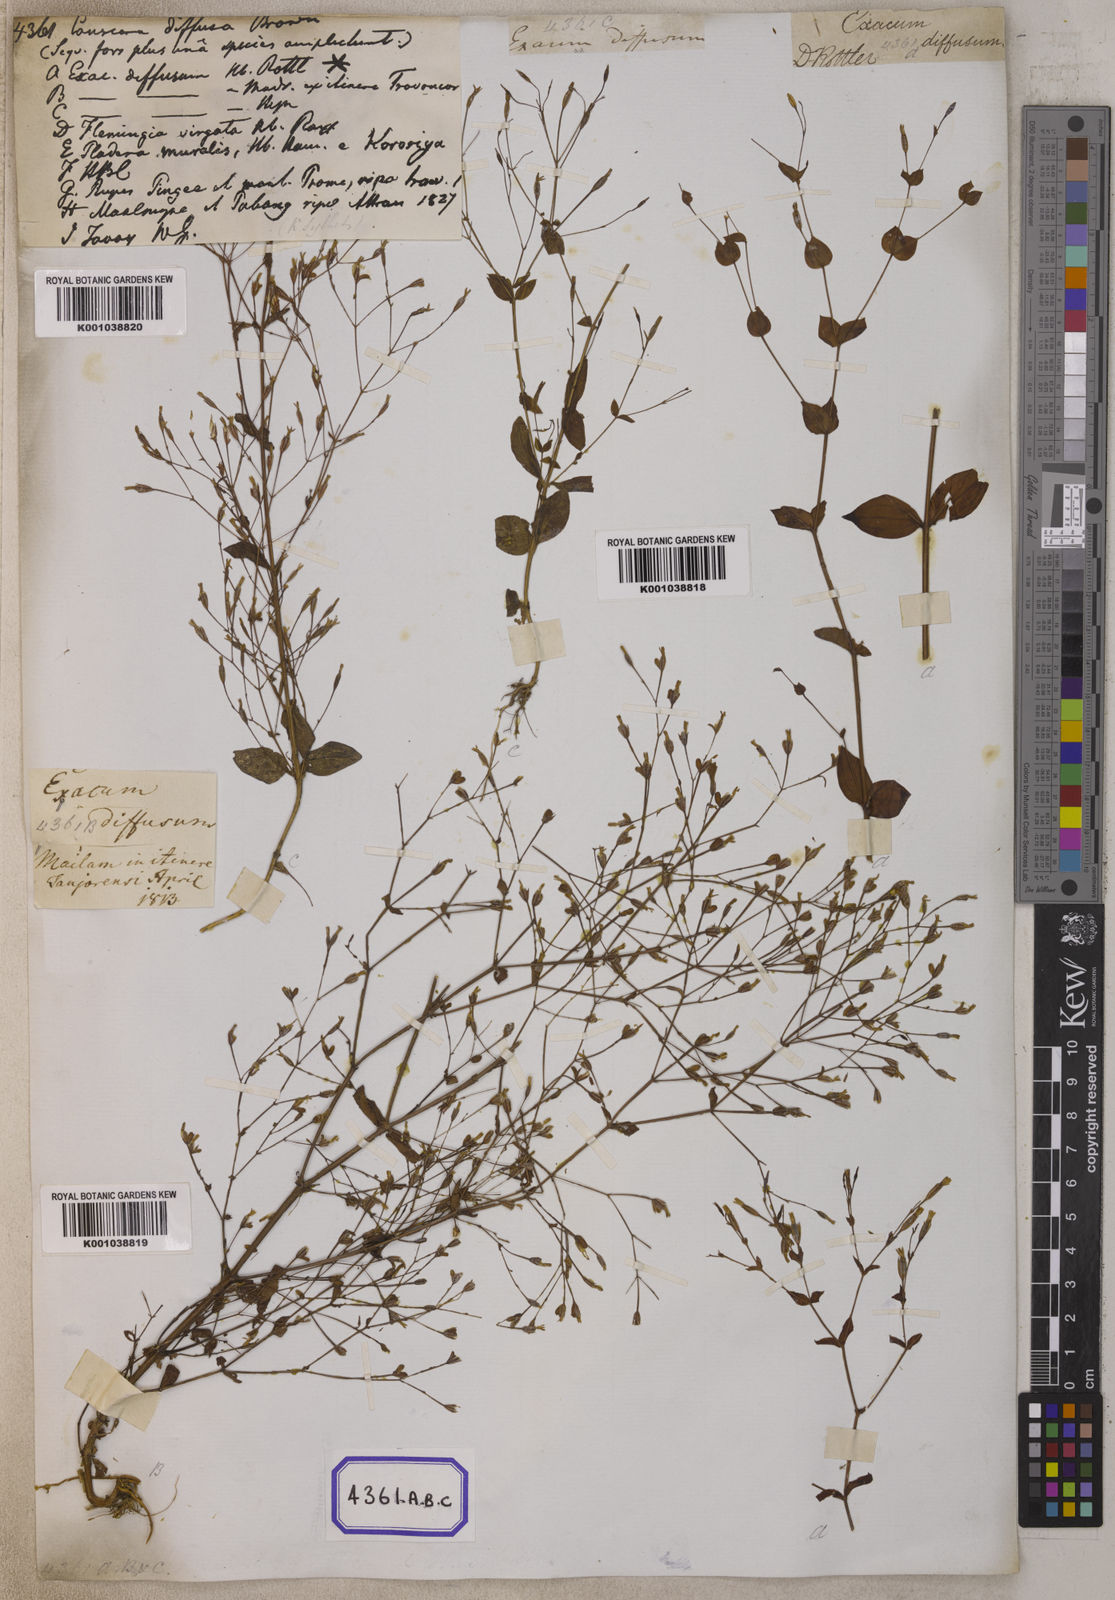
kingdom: Plantae
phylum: Tracheophyta
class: Magnoliopsida
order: Gentianales
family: Gentianaceae
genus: Canscora
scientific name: Canscora
